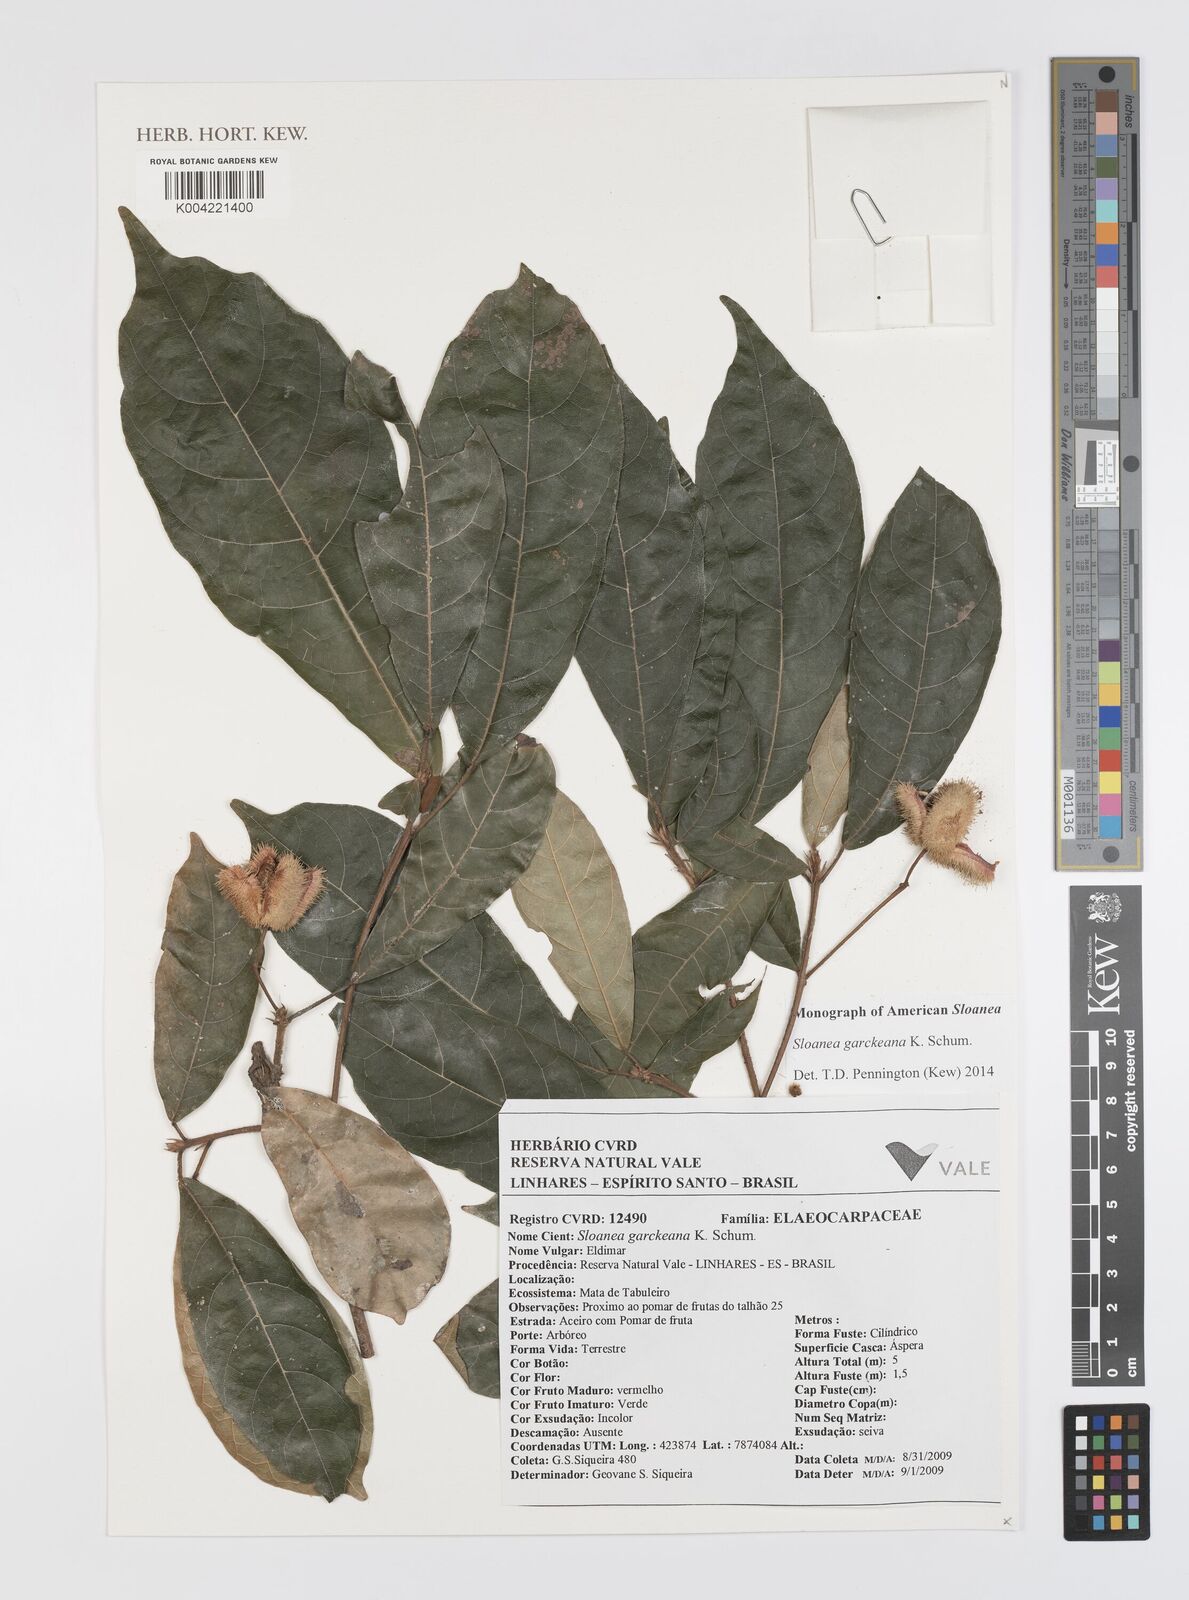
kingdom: Plantae
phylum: Tracheophyta
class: Magnoliopsida
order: Oxalidales
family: Elaeocarpaceae
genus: Sloanea
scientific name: Sloanea garckeana
